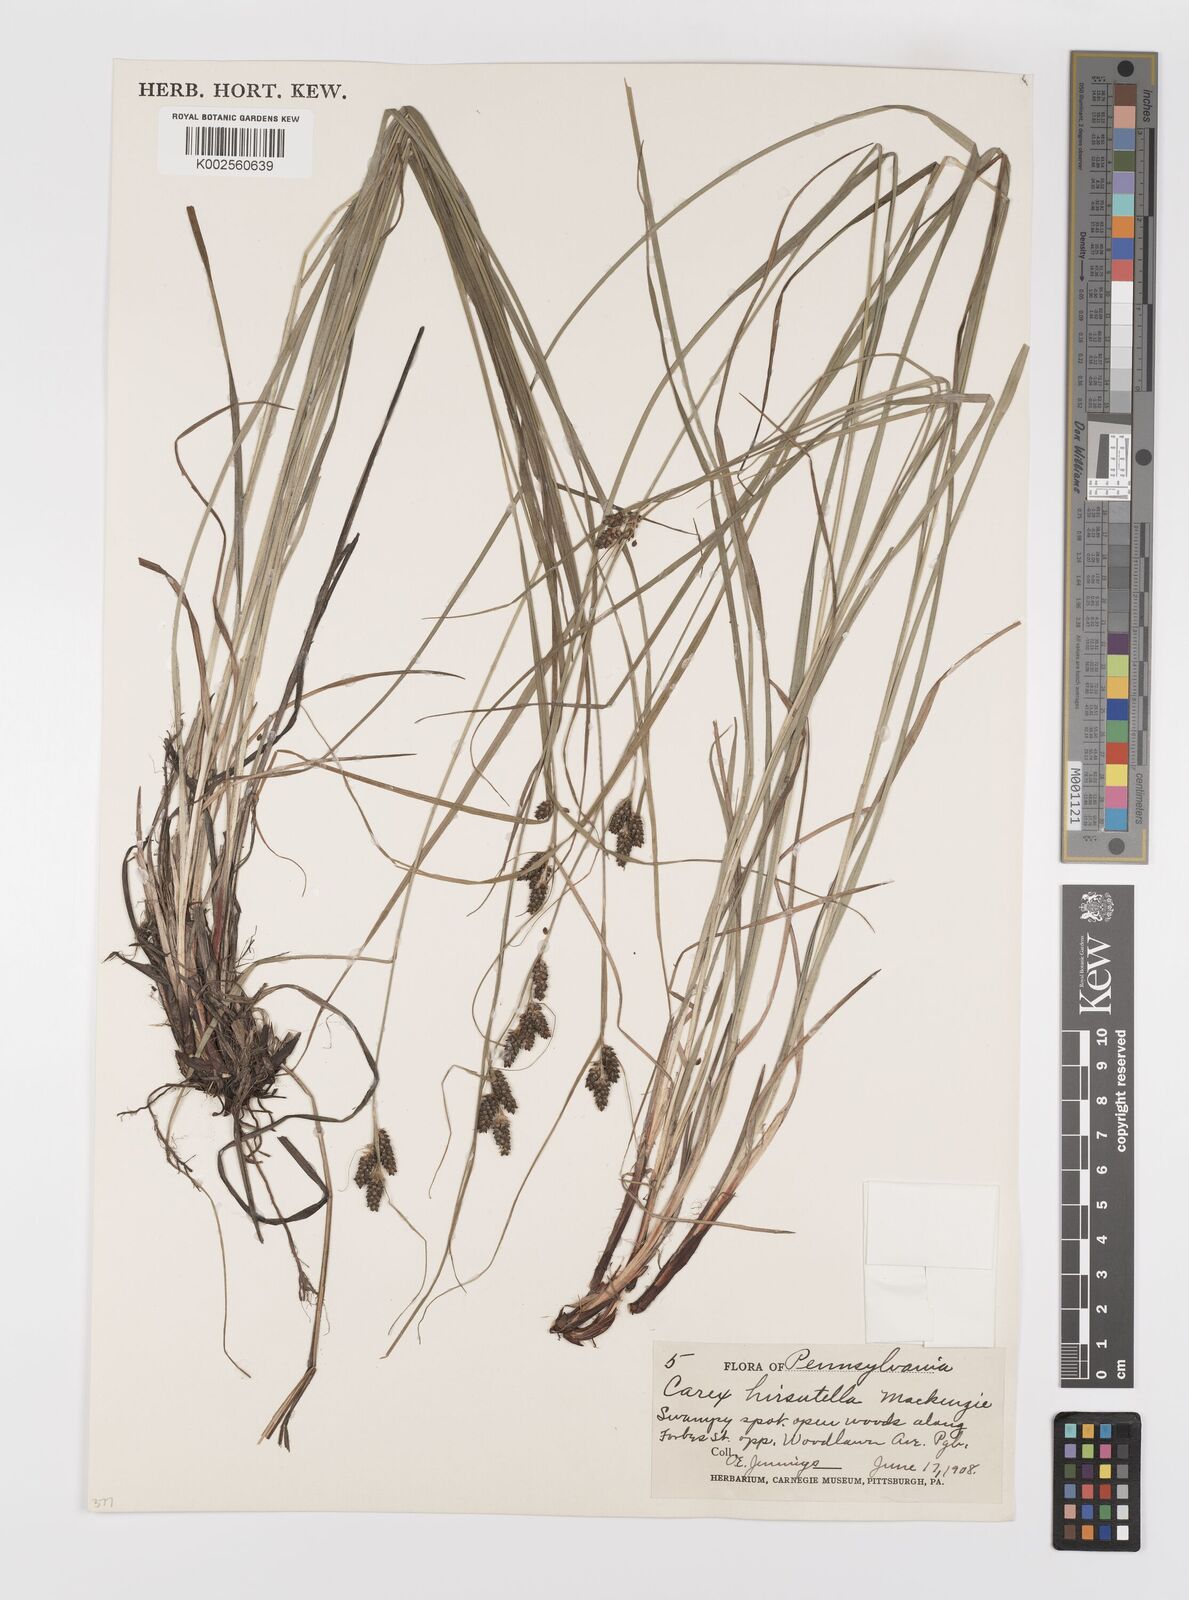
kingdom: Plantae
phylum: Tracheophyta
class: Liliopsida
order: Poales
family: Cyperaceae
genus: Carex
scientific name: Carex hirsutella
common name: Fuzzy wuzzy sedge
